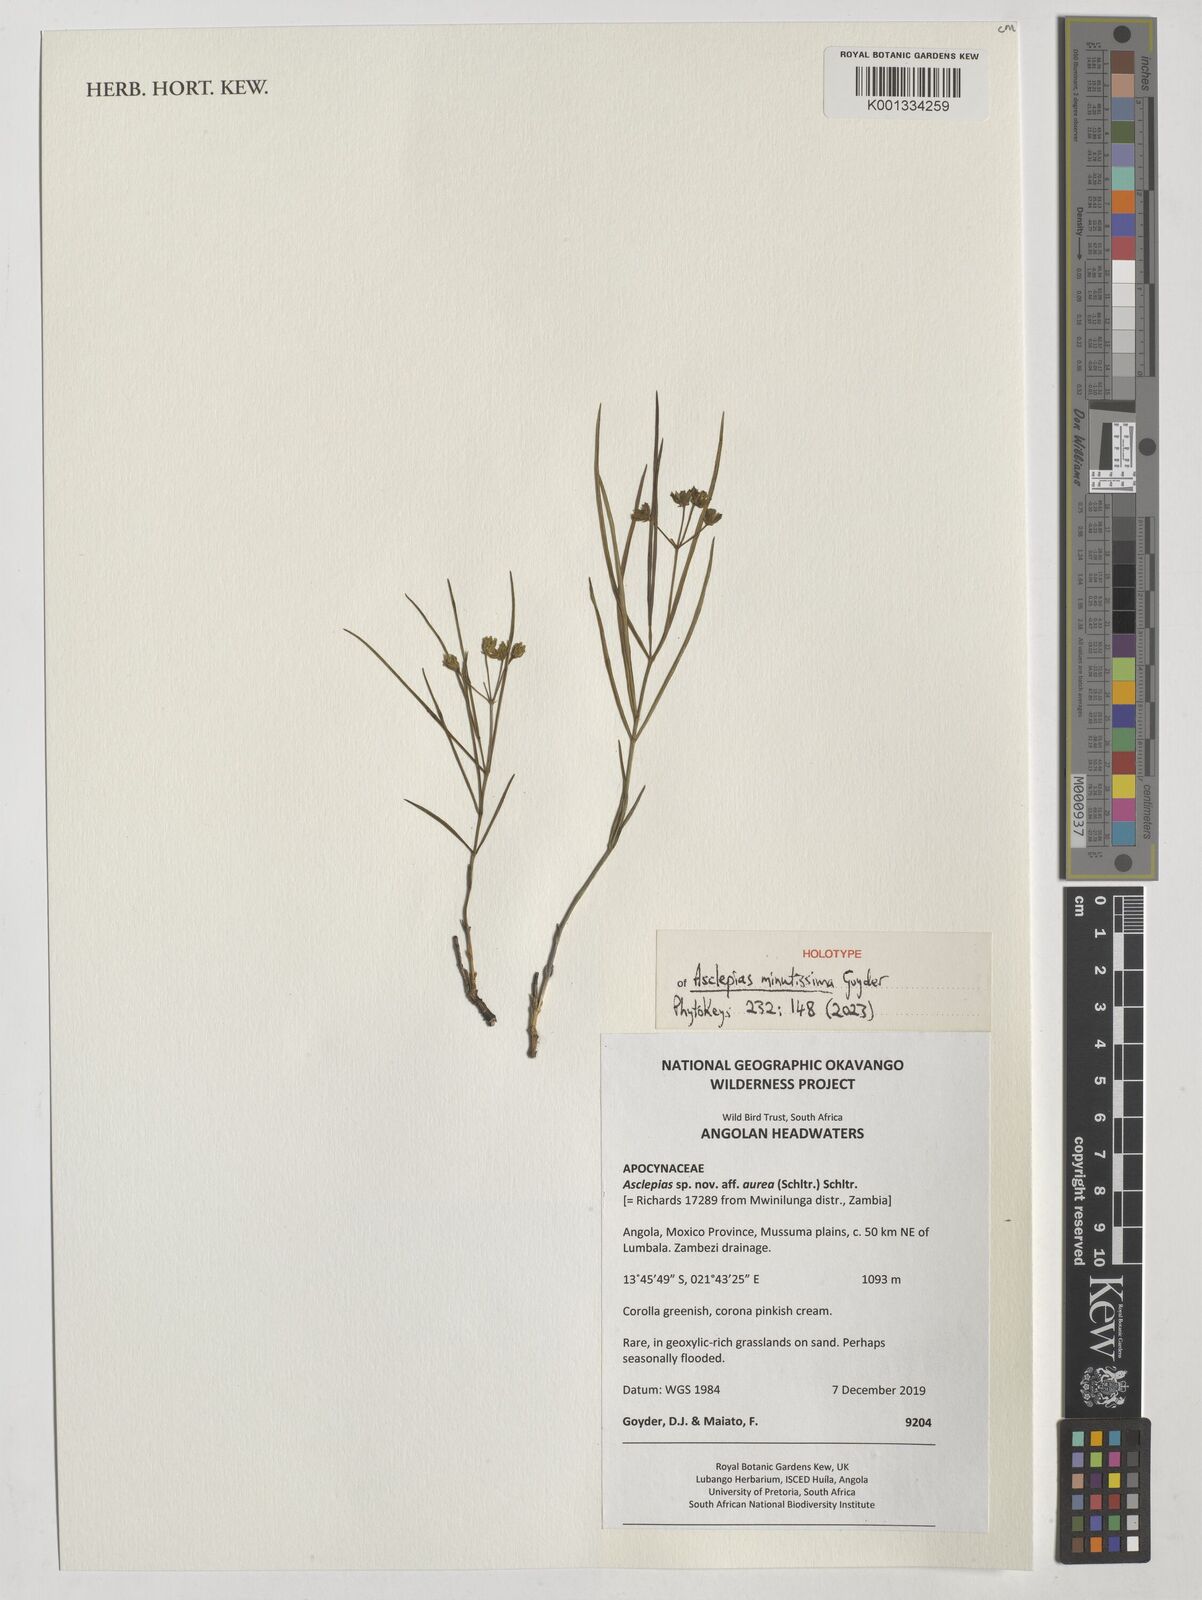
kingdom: Plantae
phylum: Tracheophyta
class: Magnoliopsida
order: Gentianales
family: Apocynaceae
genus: Asclepias
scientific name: Asclepias
